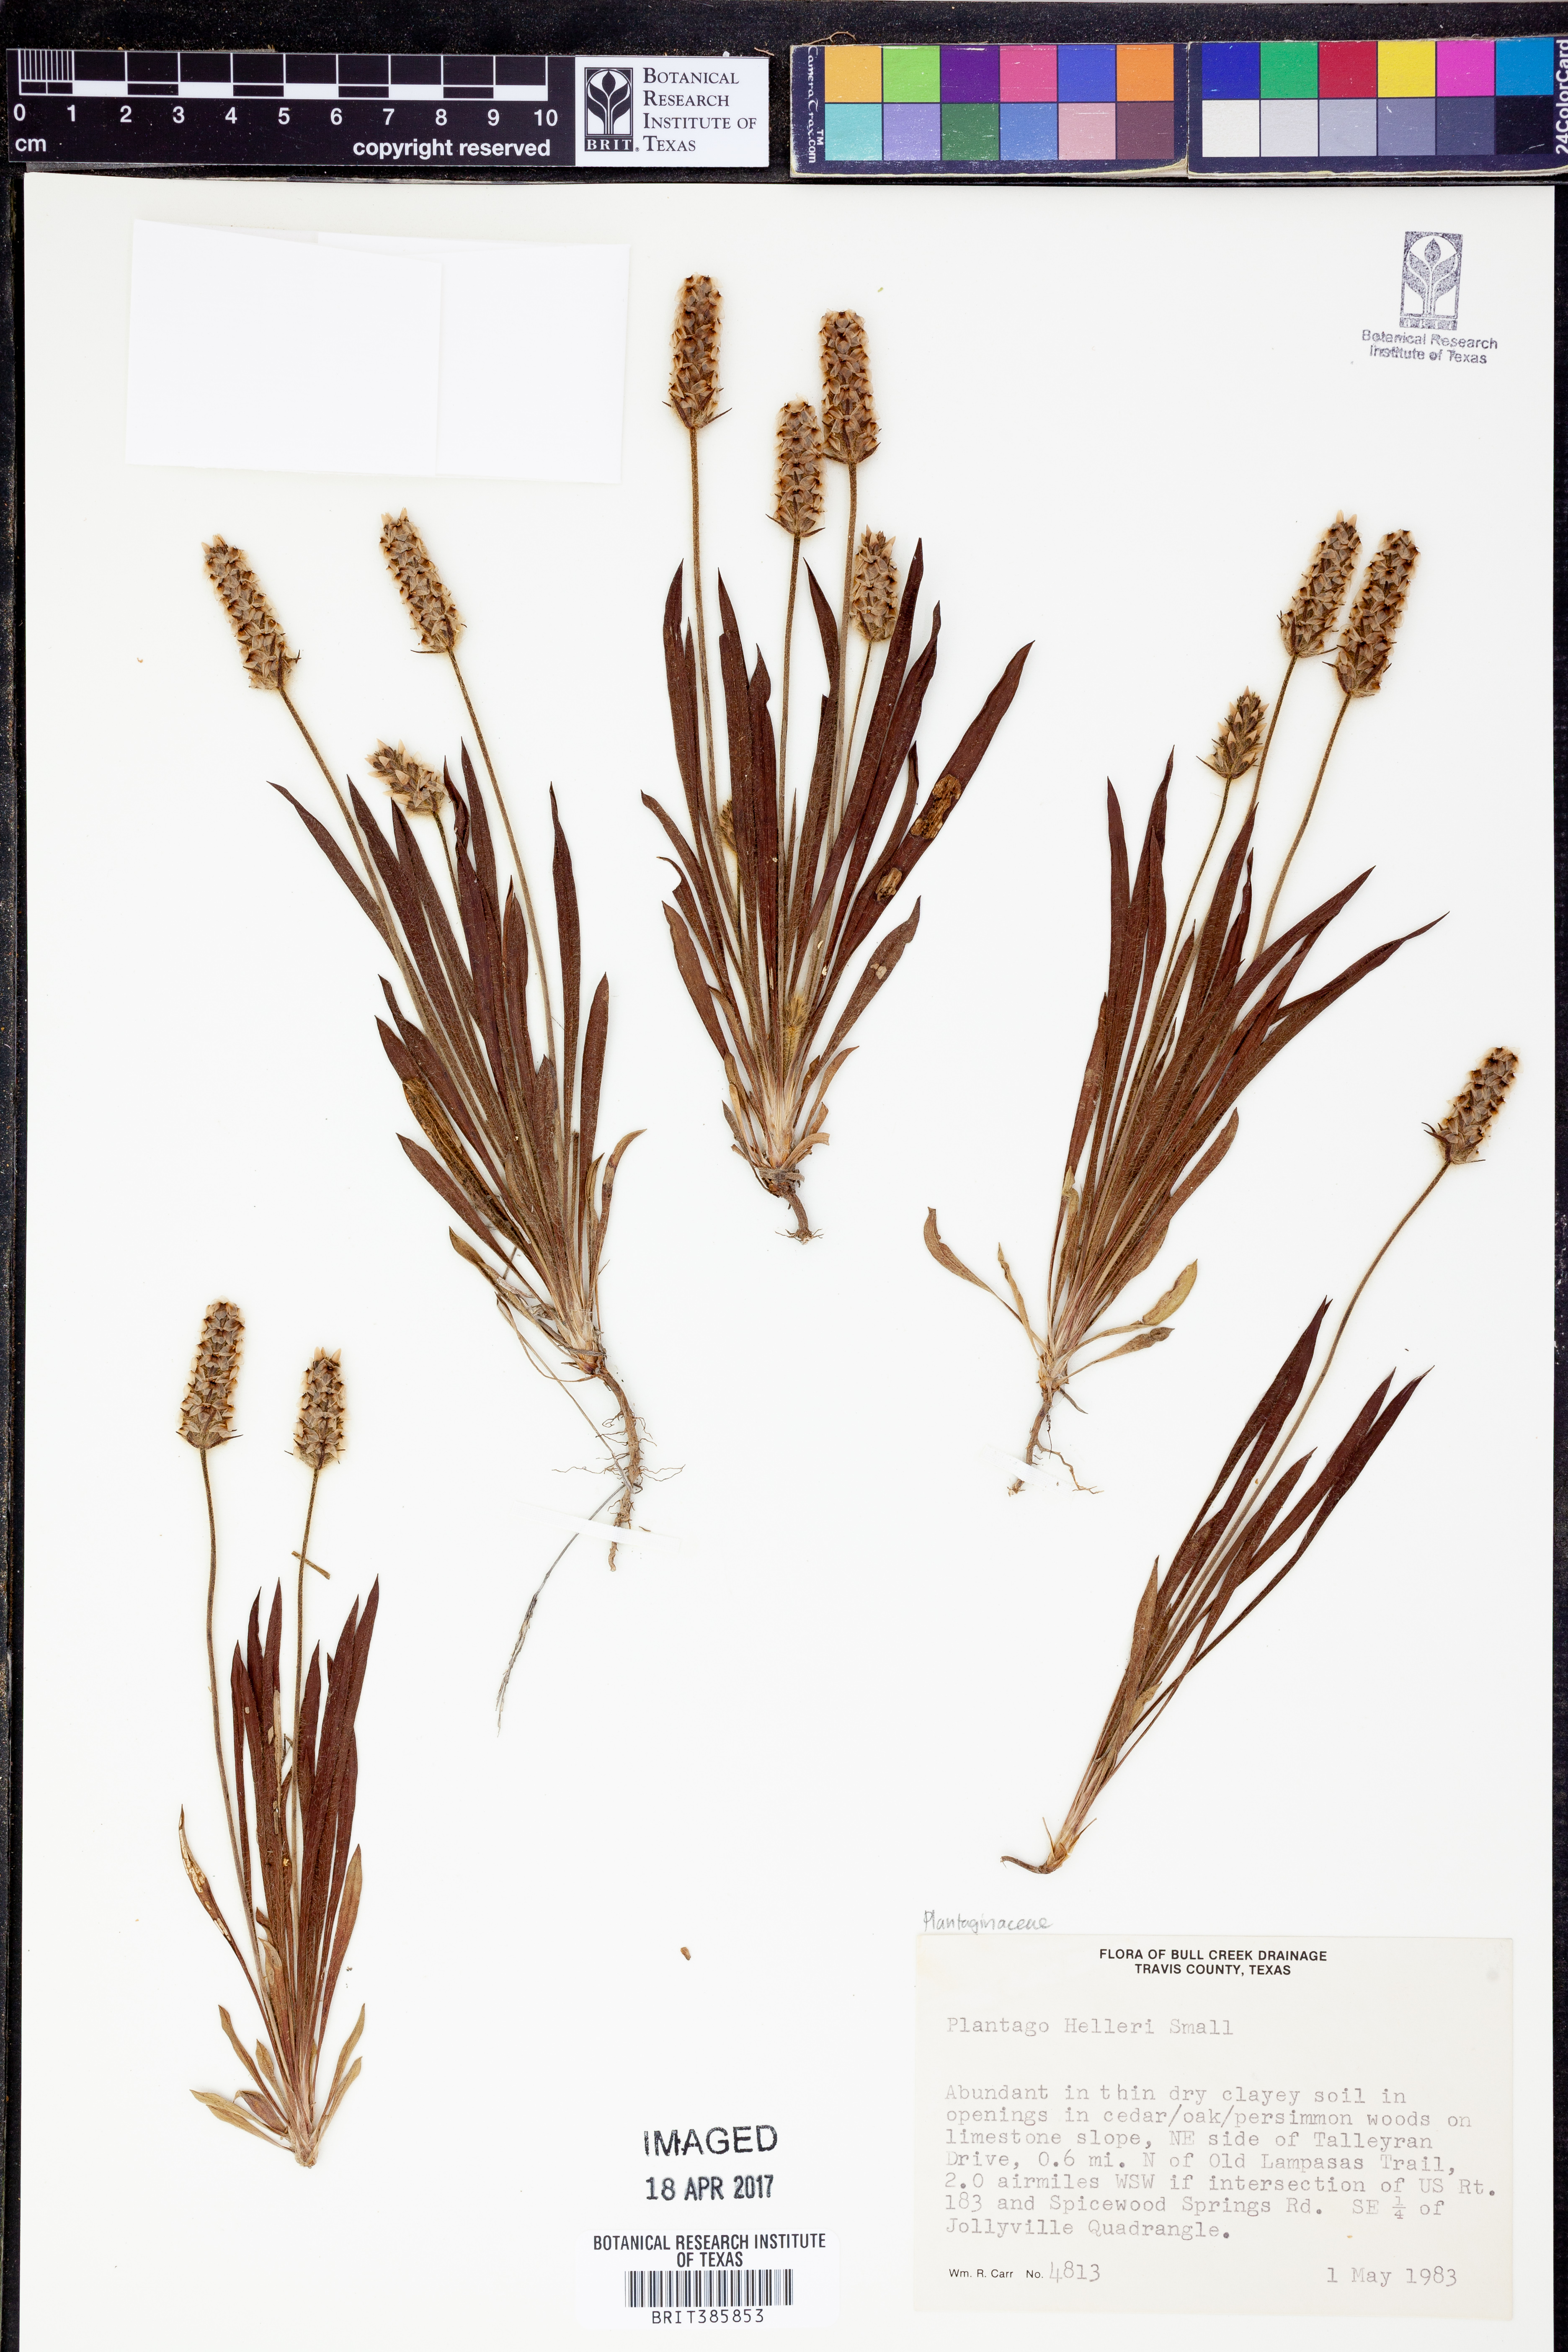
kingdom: Plantae
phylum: Tracheophyta
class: Magnoliopsida
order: Lamiales
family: Plantaginaceae
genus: Plantago
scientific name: Plantago helleri
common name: Heller's plantain
